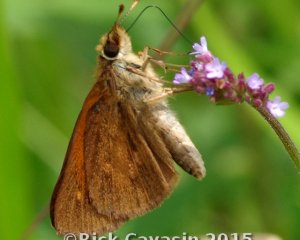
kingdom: Animalia
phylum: Arthropoda
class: Insecta
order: Lepidoptera
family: Hesperiidae
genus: Poanes
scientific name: Poanes viator
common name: Broad-winged Skipper
